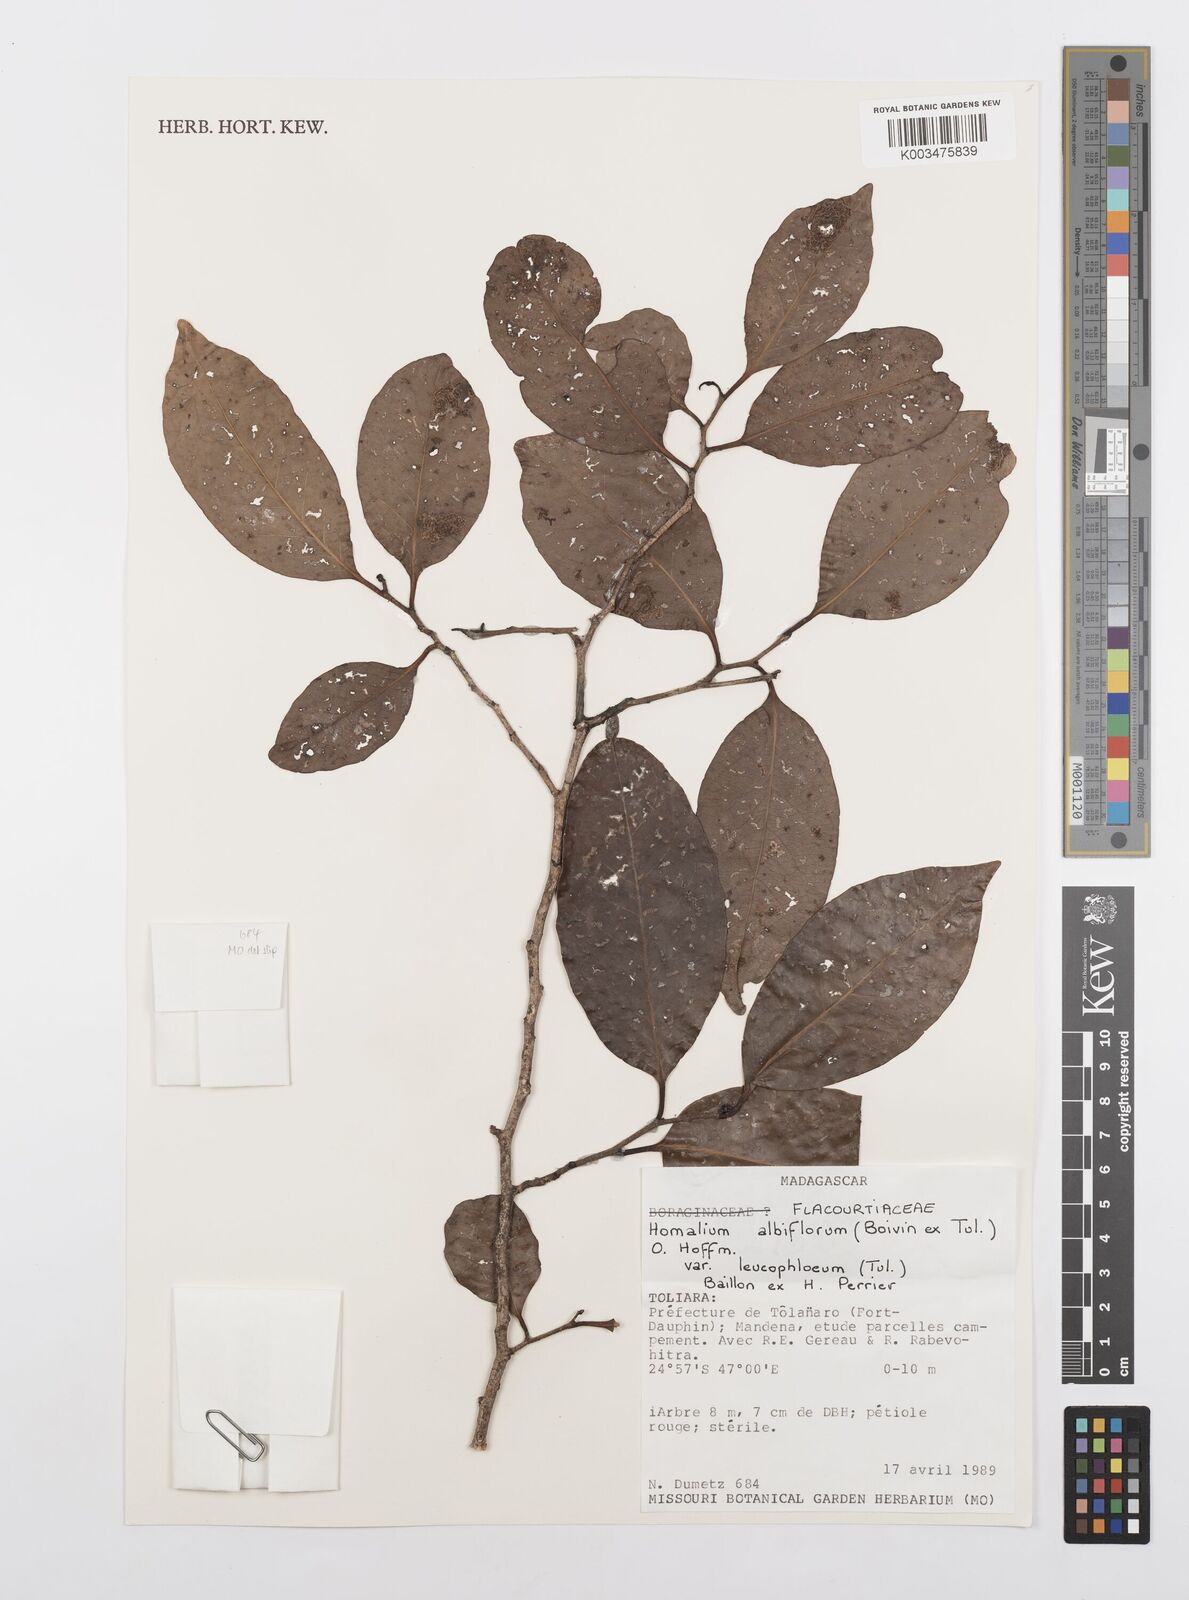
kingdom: Plantae
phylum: Tracheophyta
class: Magnoliopsida
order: Malpighiales
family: Salicaceae
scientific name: Salicaceae
